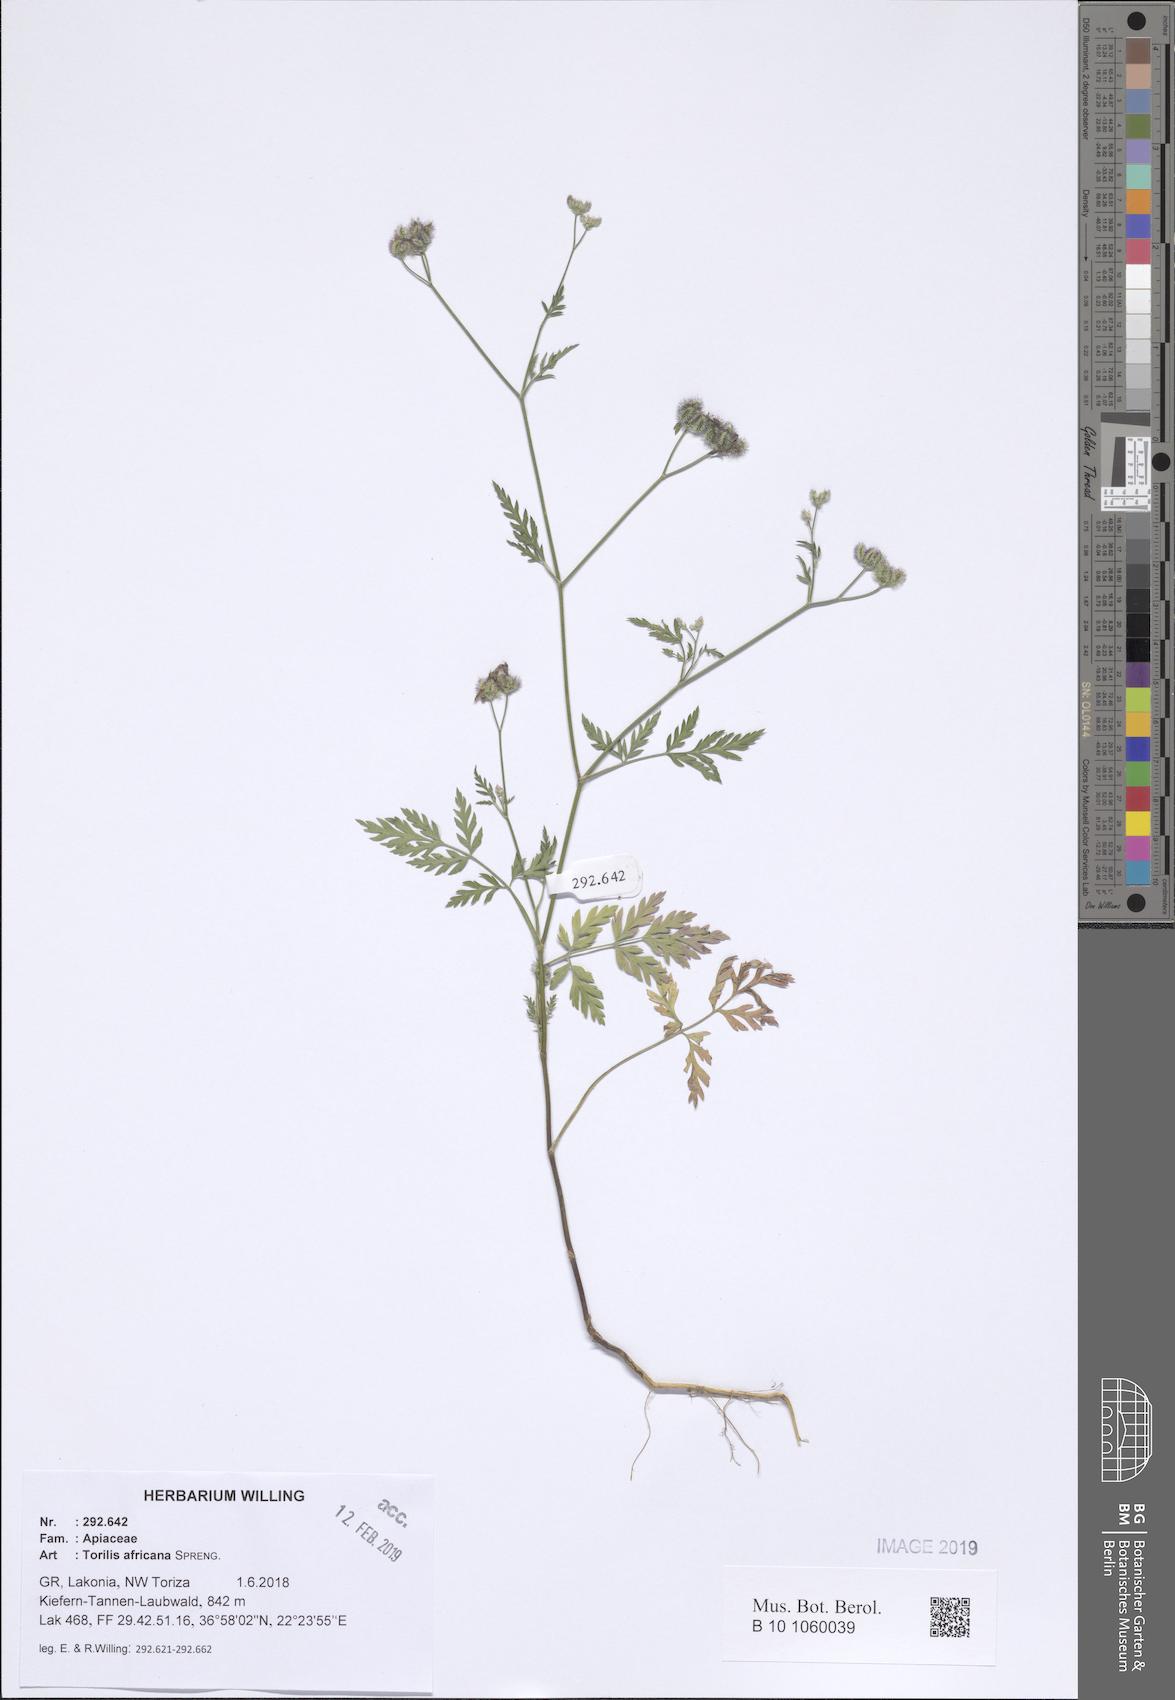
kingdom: Plantae
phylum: Tracheophyta
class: Magnoliopsida
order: Apiales
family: Apiaceae
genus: Torilis
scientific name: Torilis africana
